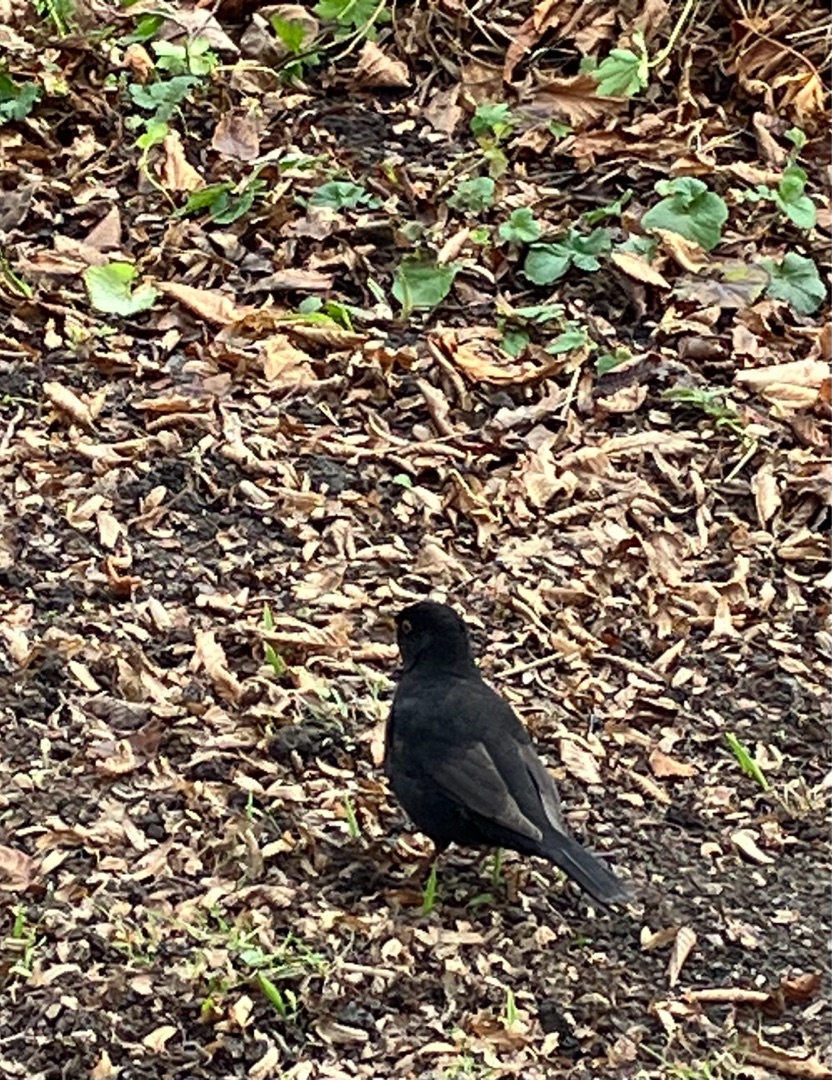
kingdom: Animalia
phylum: Chordata
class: Aves
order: Passeriformes
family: Turdidae
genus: Turdus
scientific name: Turdus merula
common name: Solsort
